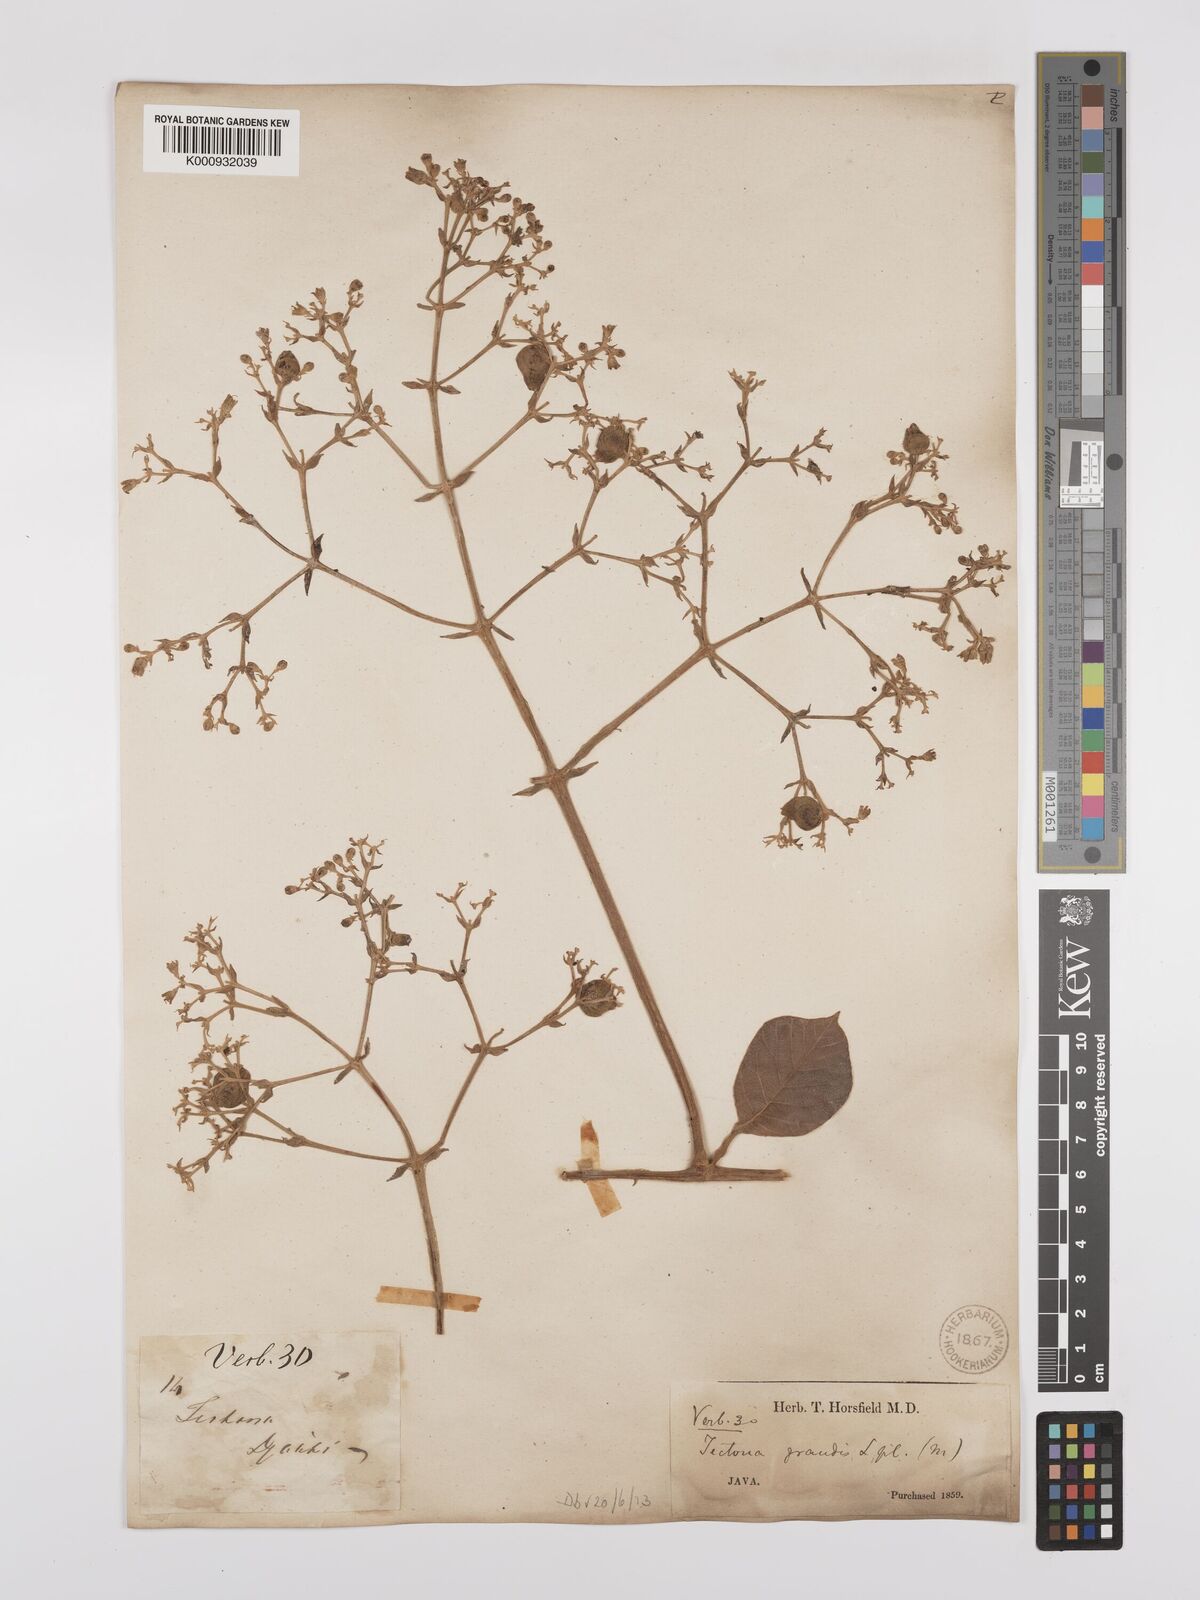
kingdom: Plantae
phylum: Tracheophyta
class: Magnoliopsida
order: Lamiales
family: Lamiaceae
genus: Tectona
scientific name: Tectona grandis
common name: Teak
